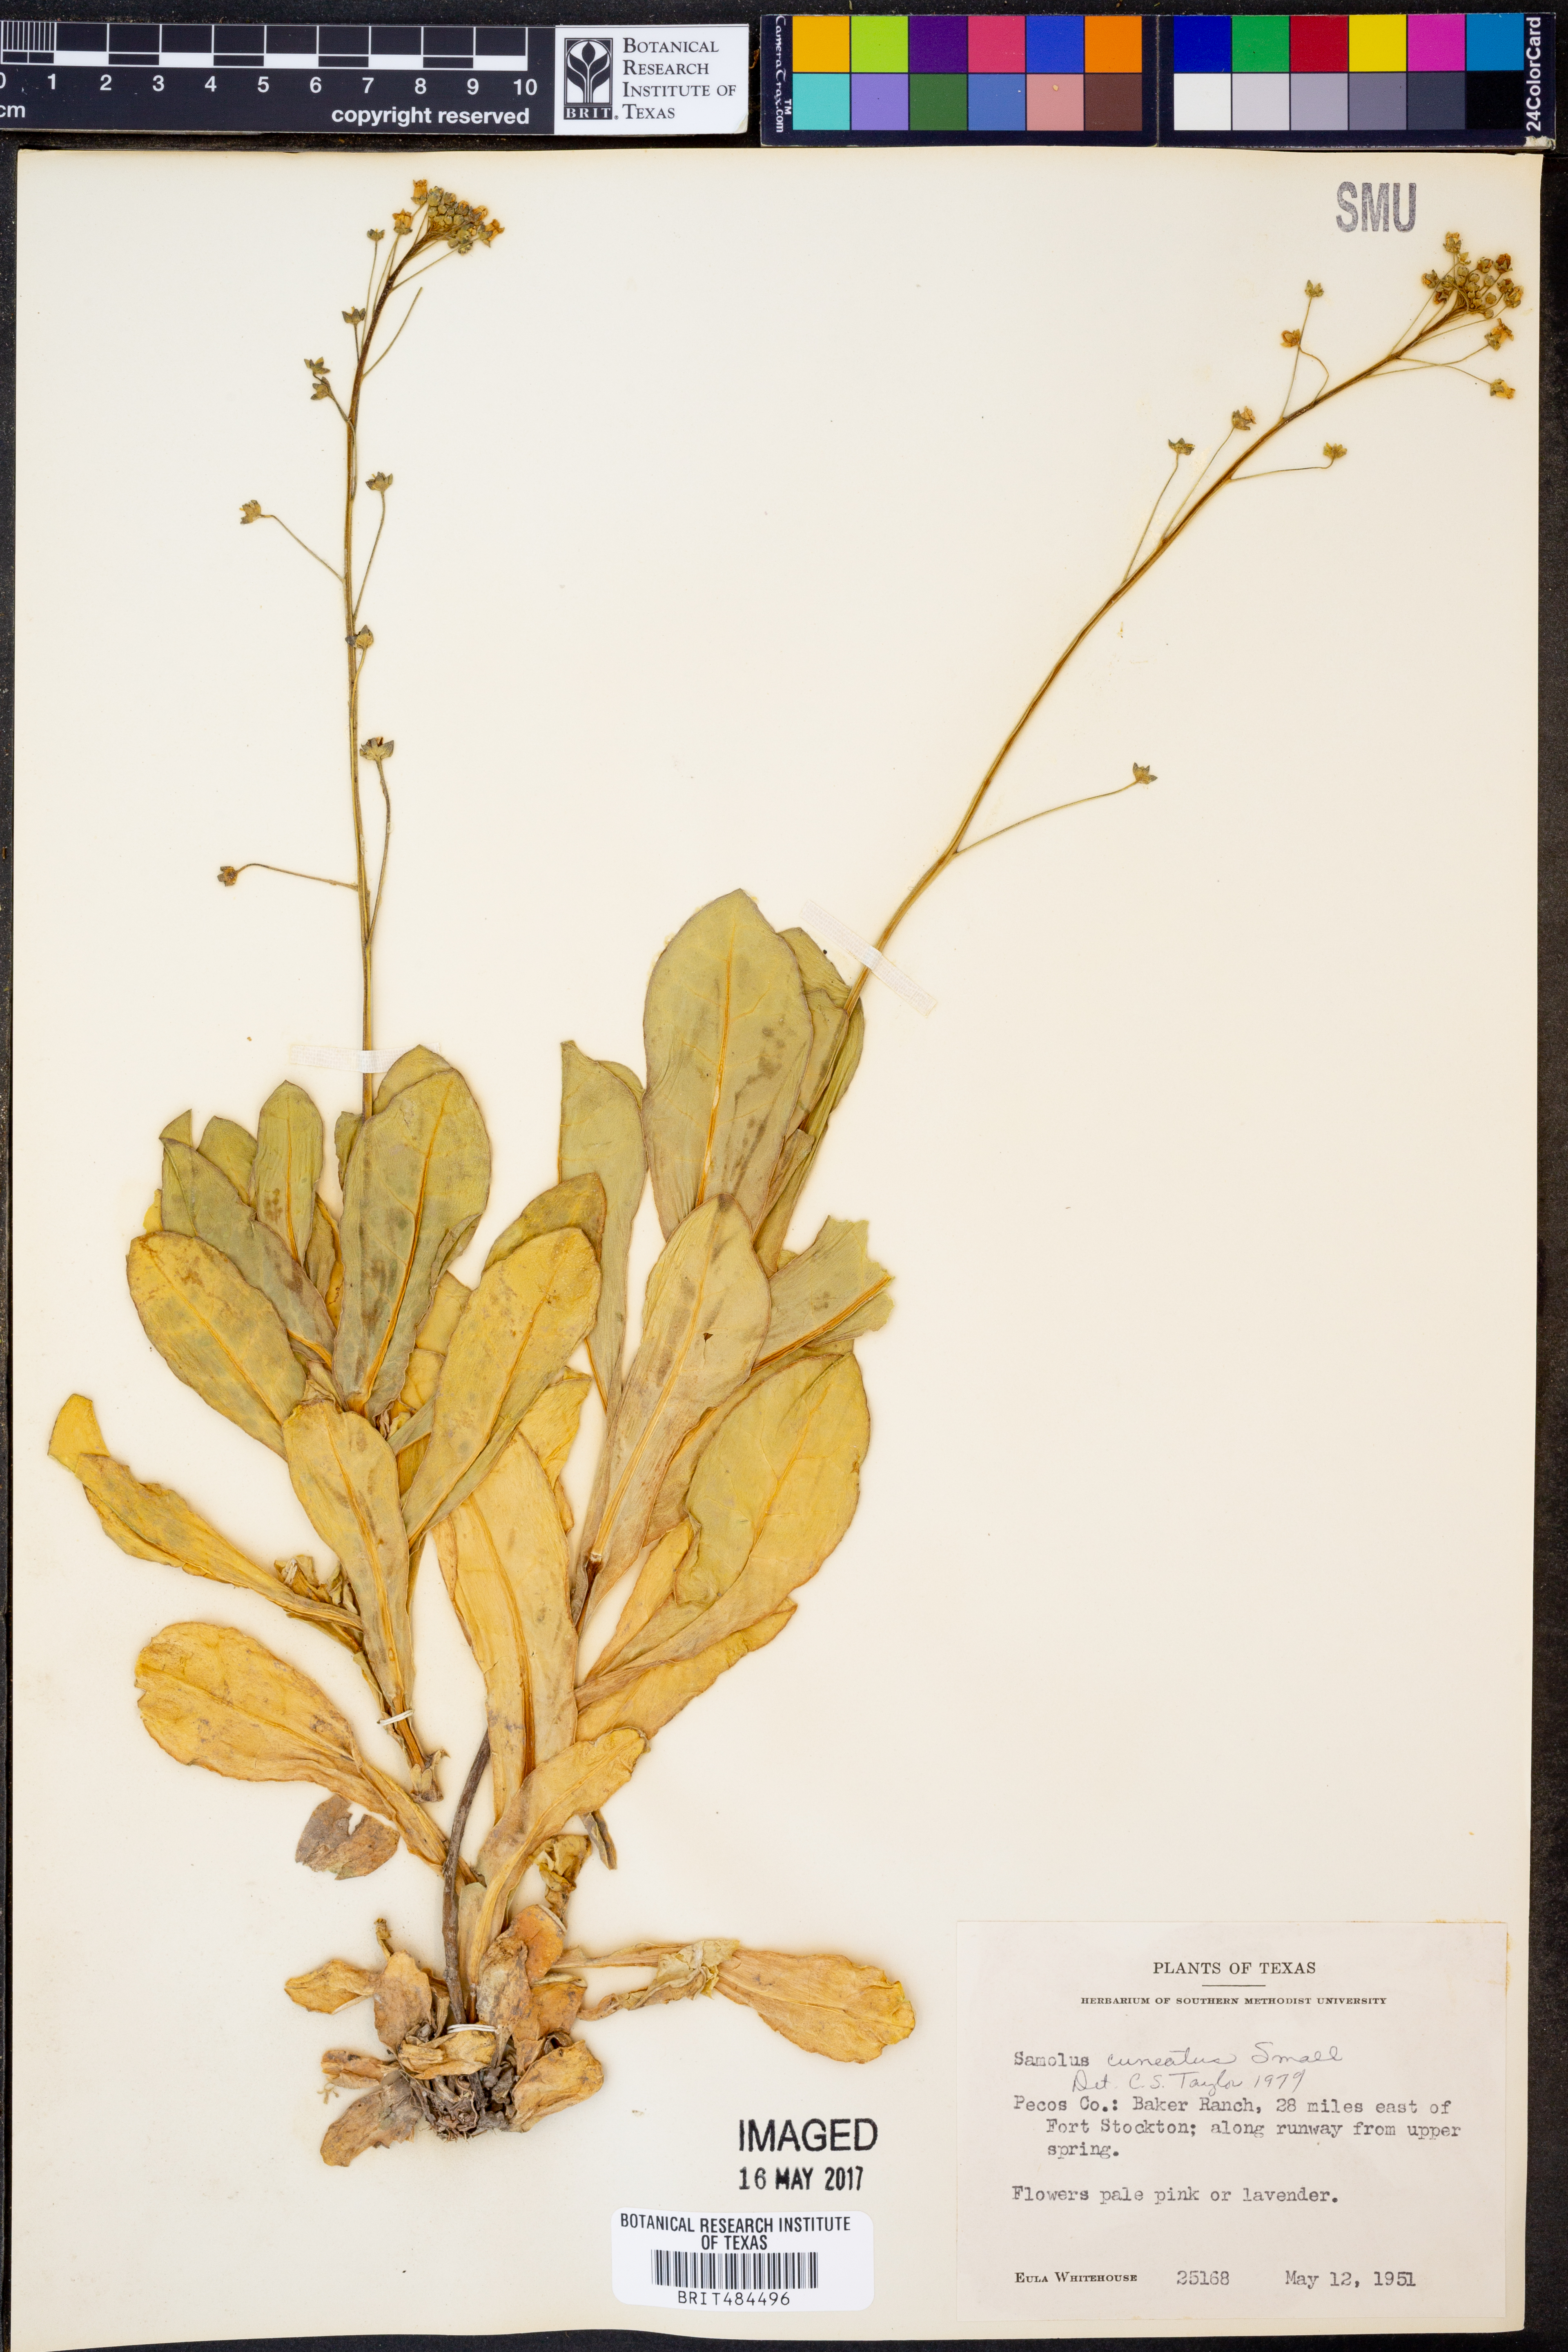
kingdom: Plantae
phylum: Tracheophyta
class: Magnoliopsida
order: Ericales
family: Primulaceae
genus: Samolus
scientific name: Samolus ebracteatus
